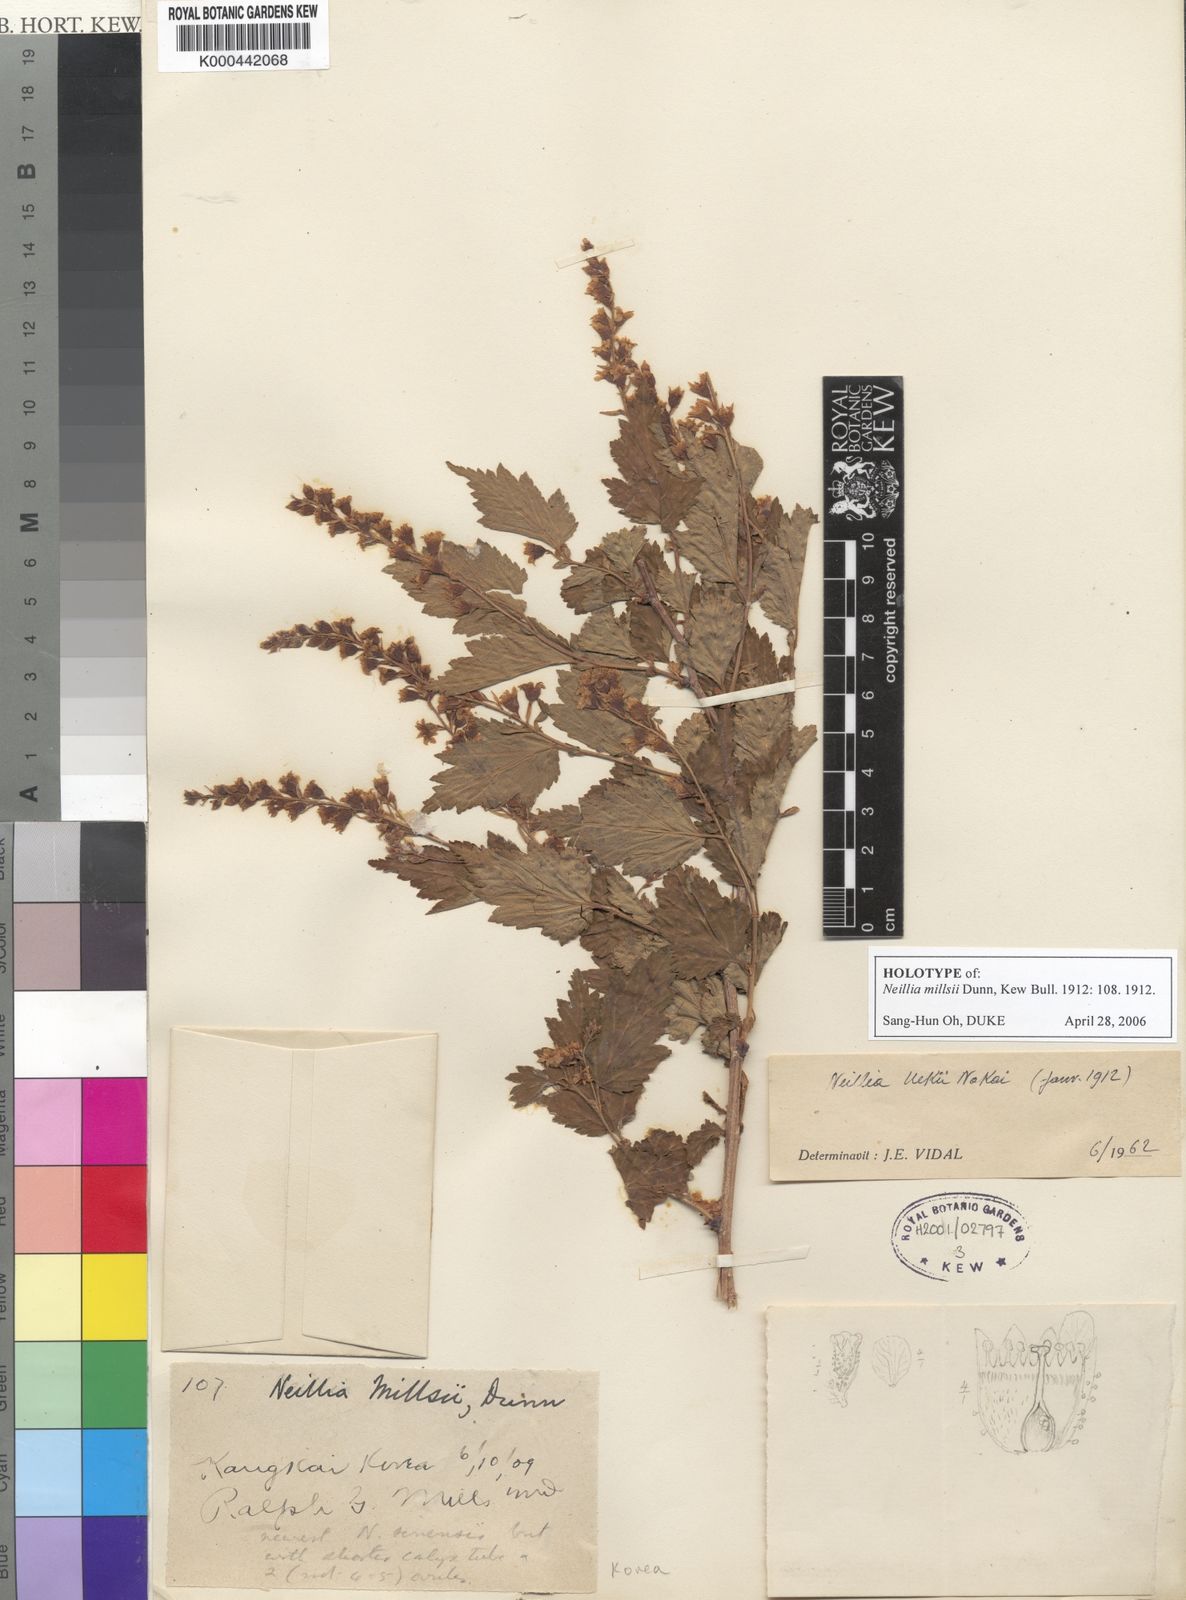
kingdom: Plantae
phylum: Tracheophyta
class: Magnoliopsida
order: Rosales
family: Rosaceae
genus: Neillia
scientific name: Neillia uekii
